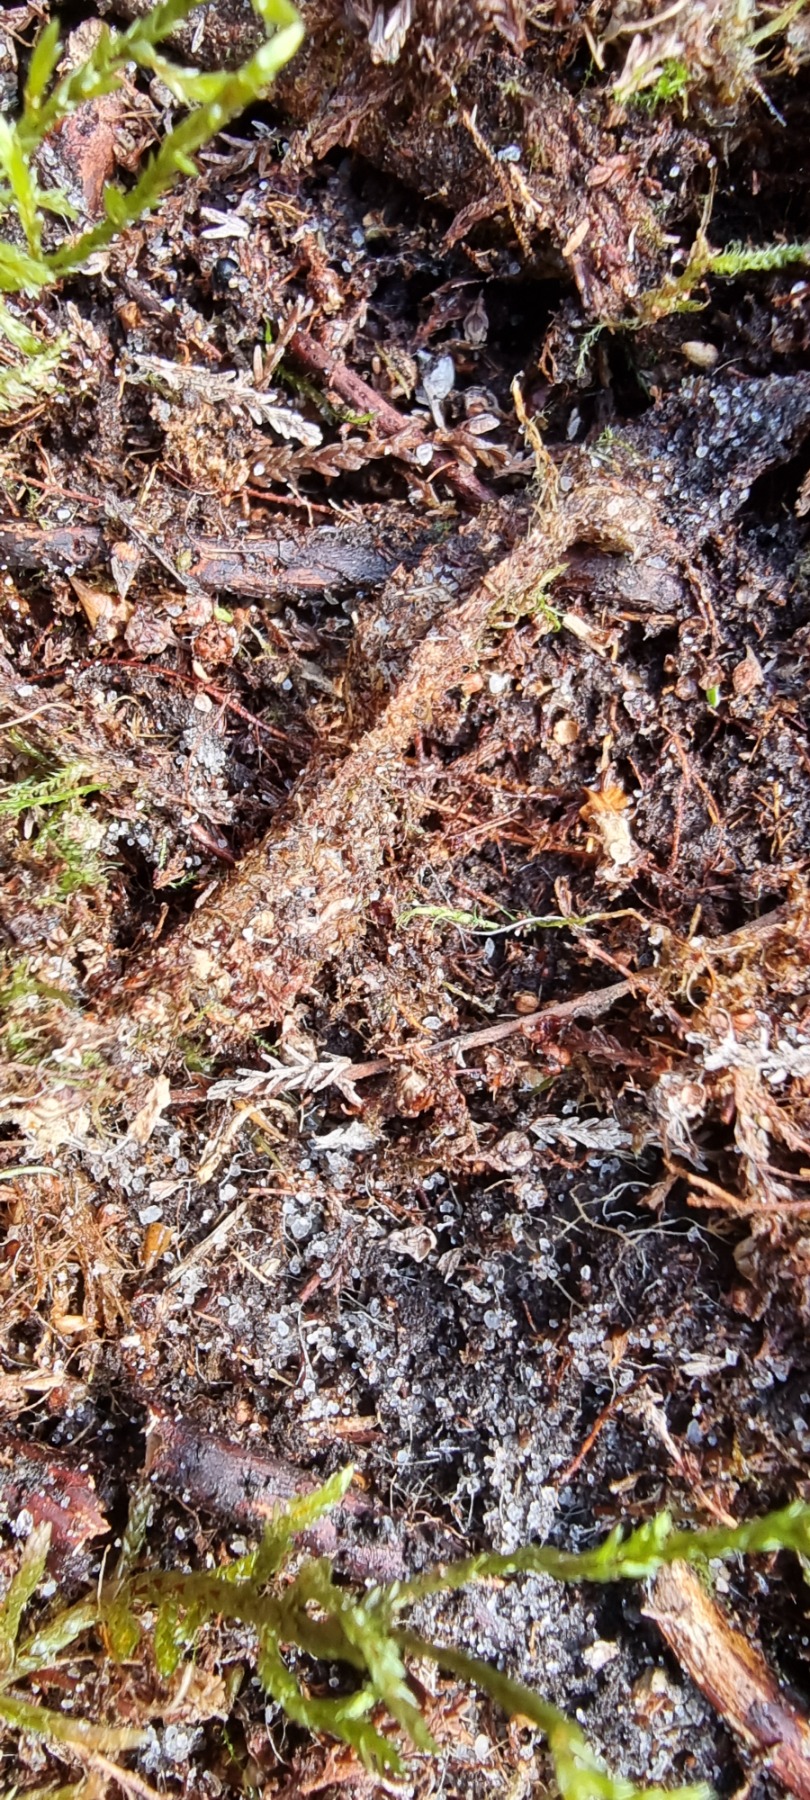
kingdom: Animalia
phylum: Arthropoda
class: Arachnida
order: Araneae
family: Atypidae
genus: Atypus
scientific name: Atypus affinis
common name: Nordlig fugleedderkop
